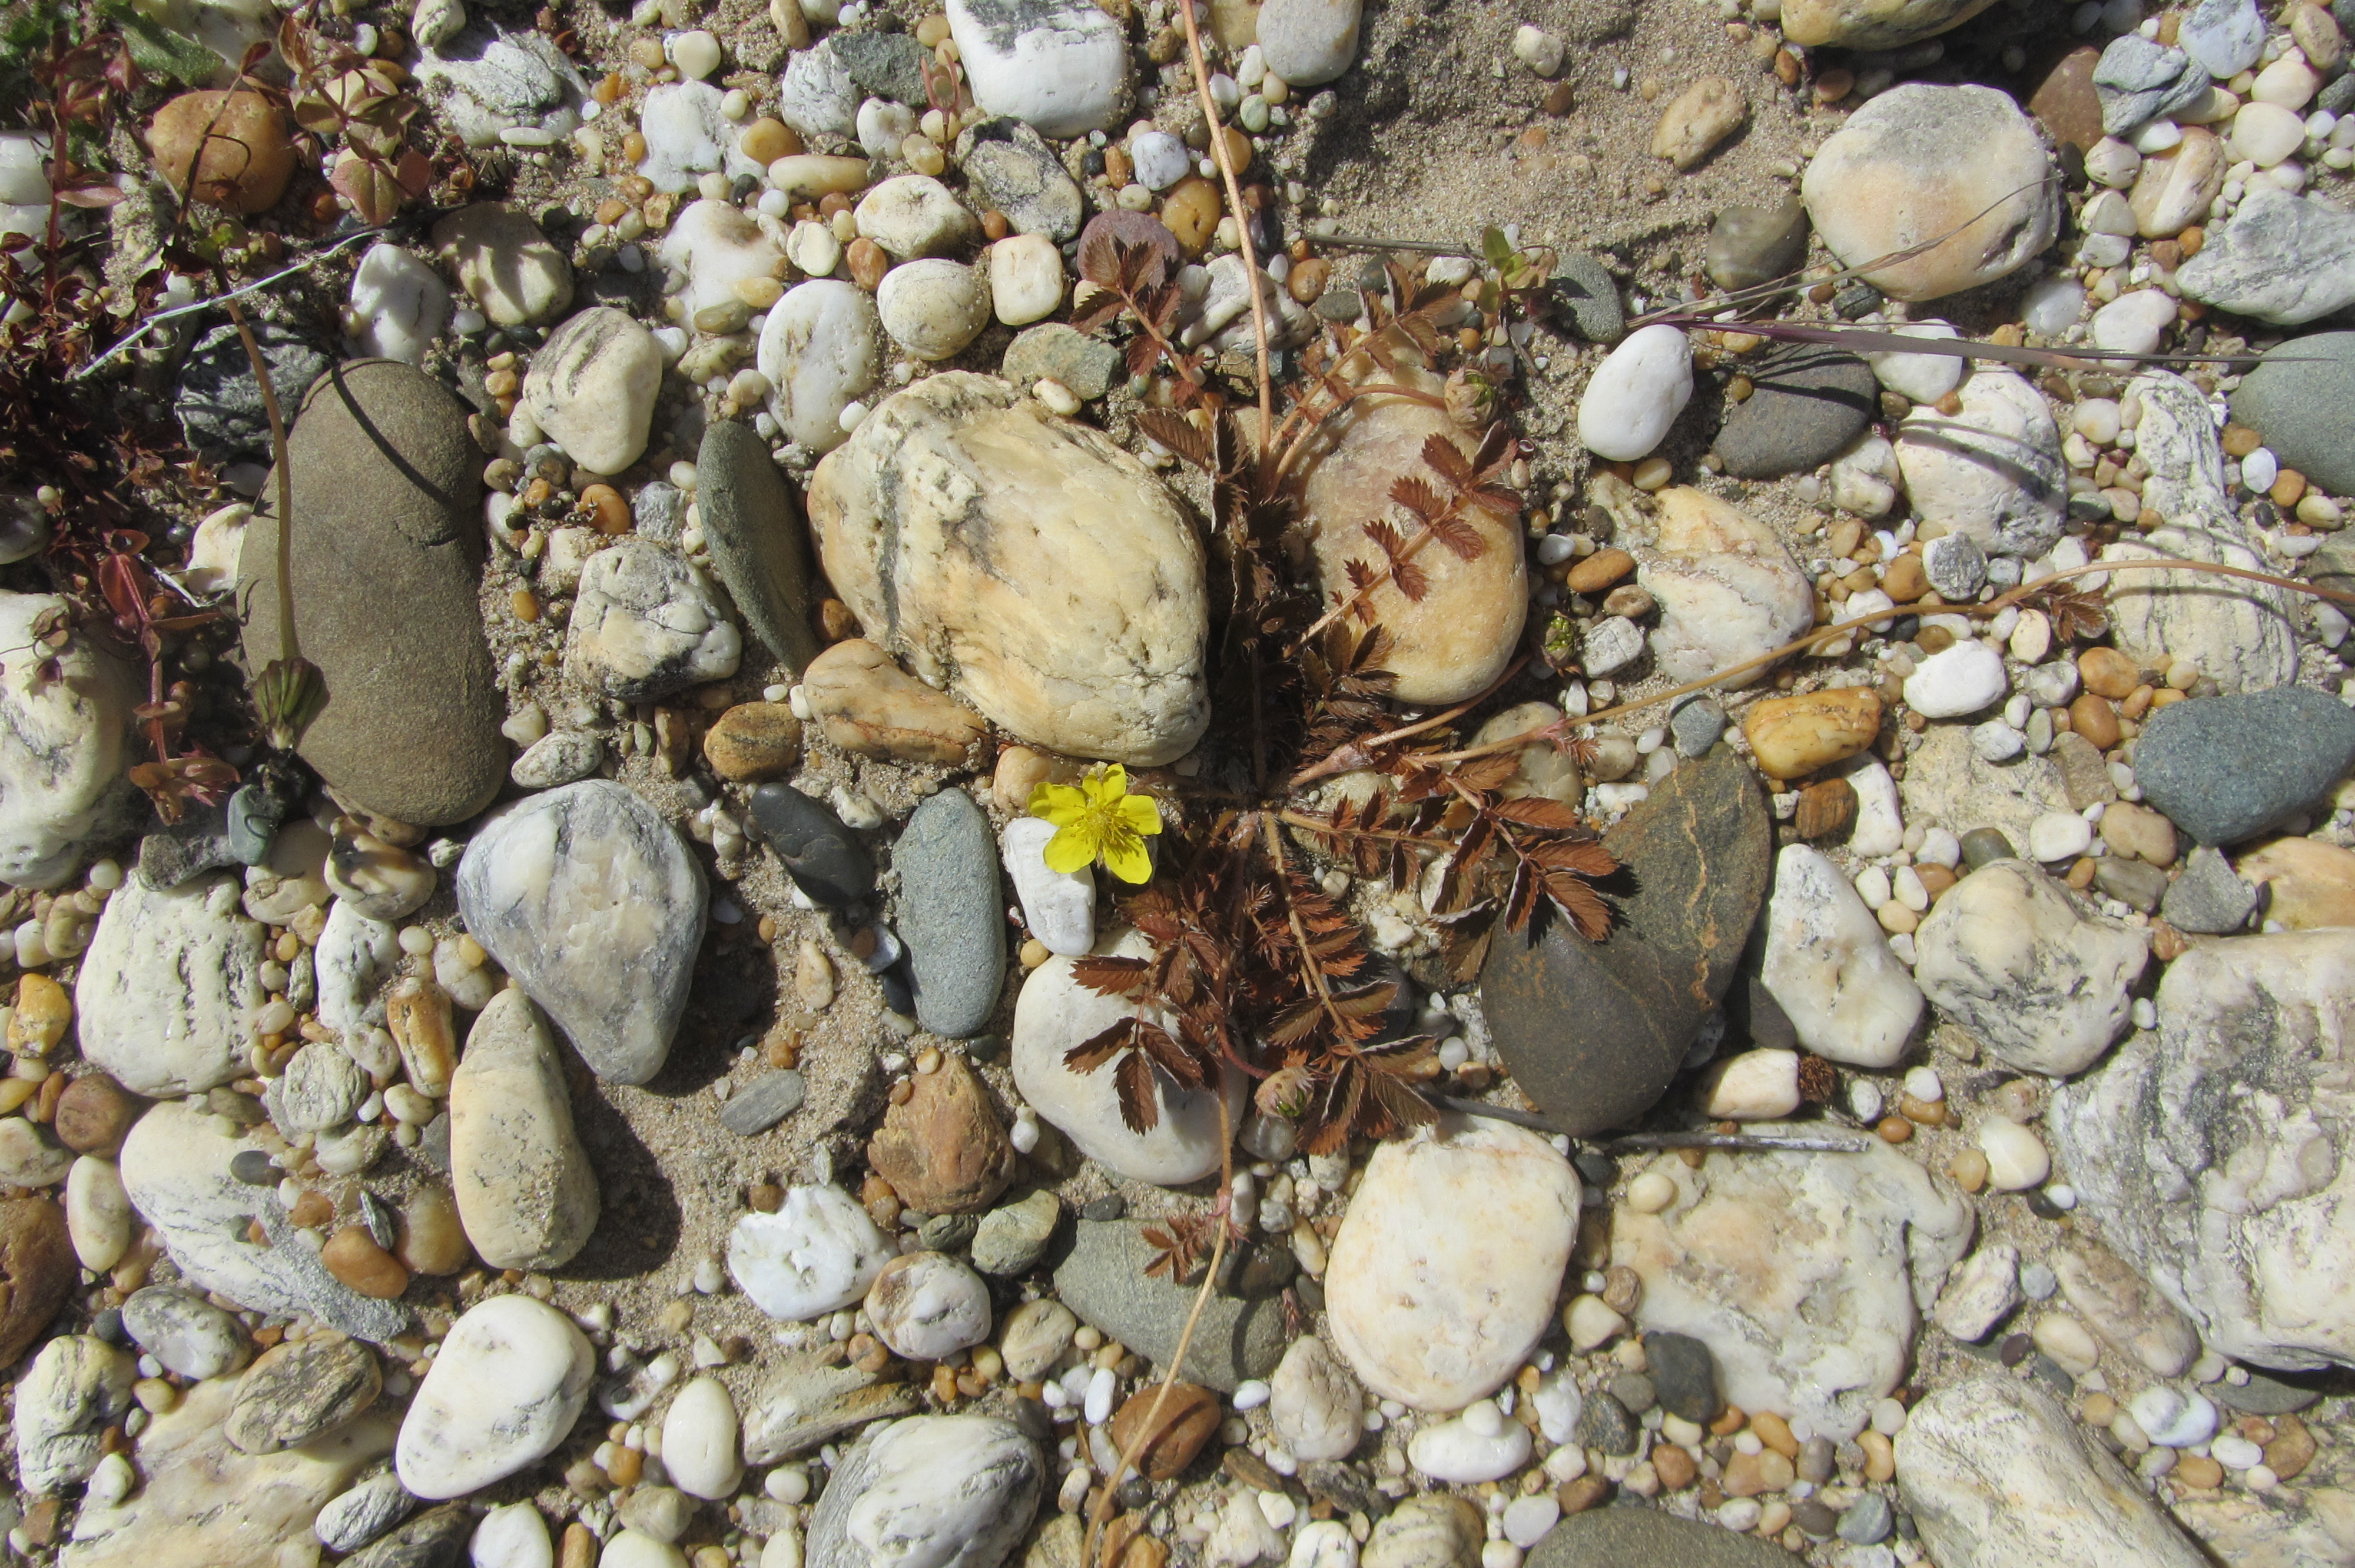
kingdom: Plantae
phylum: Tracheophyta
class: Magnoliopsida
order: Rosales
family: Rosaceae
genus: Argentina
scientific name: Argentina anserinoides
